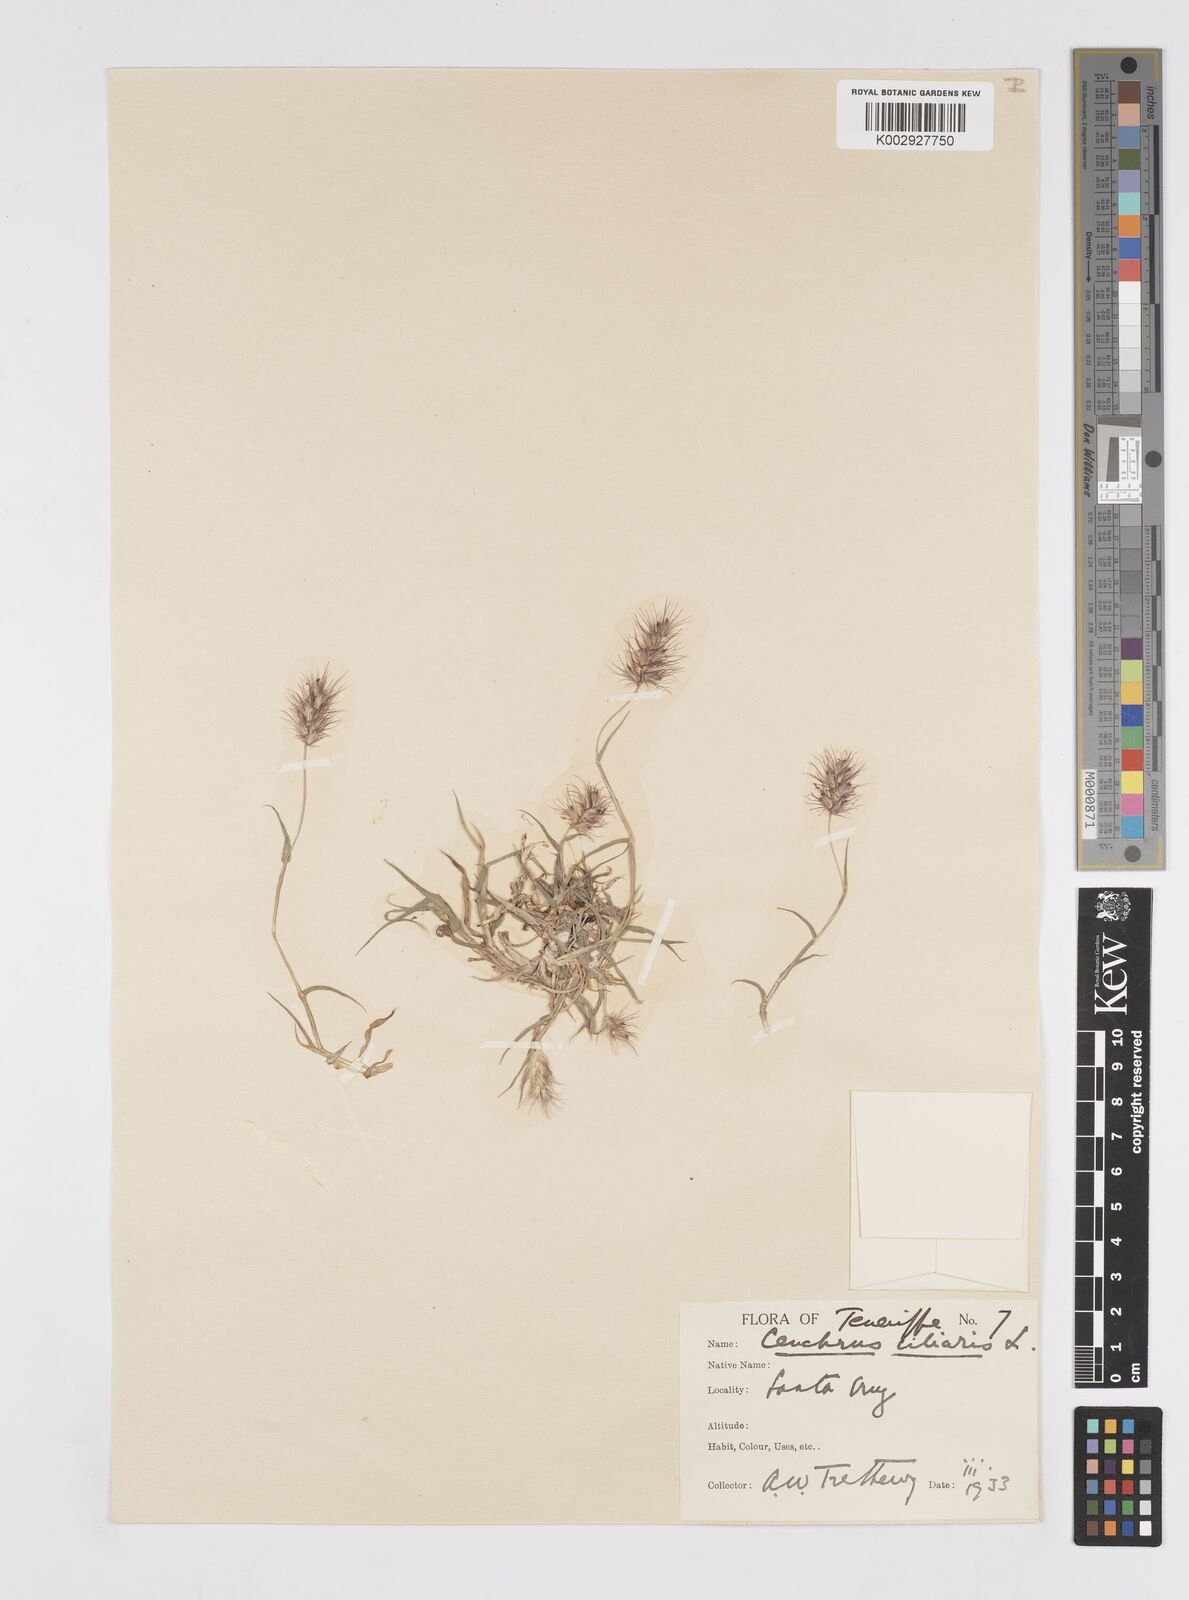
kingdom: Plantae
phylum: Tracheophyta
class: Liliopsida
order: Poales
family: Poaceae
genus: Cenchrus
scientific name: Cenchrus
